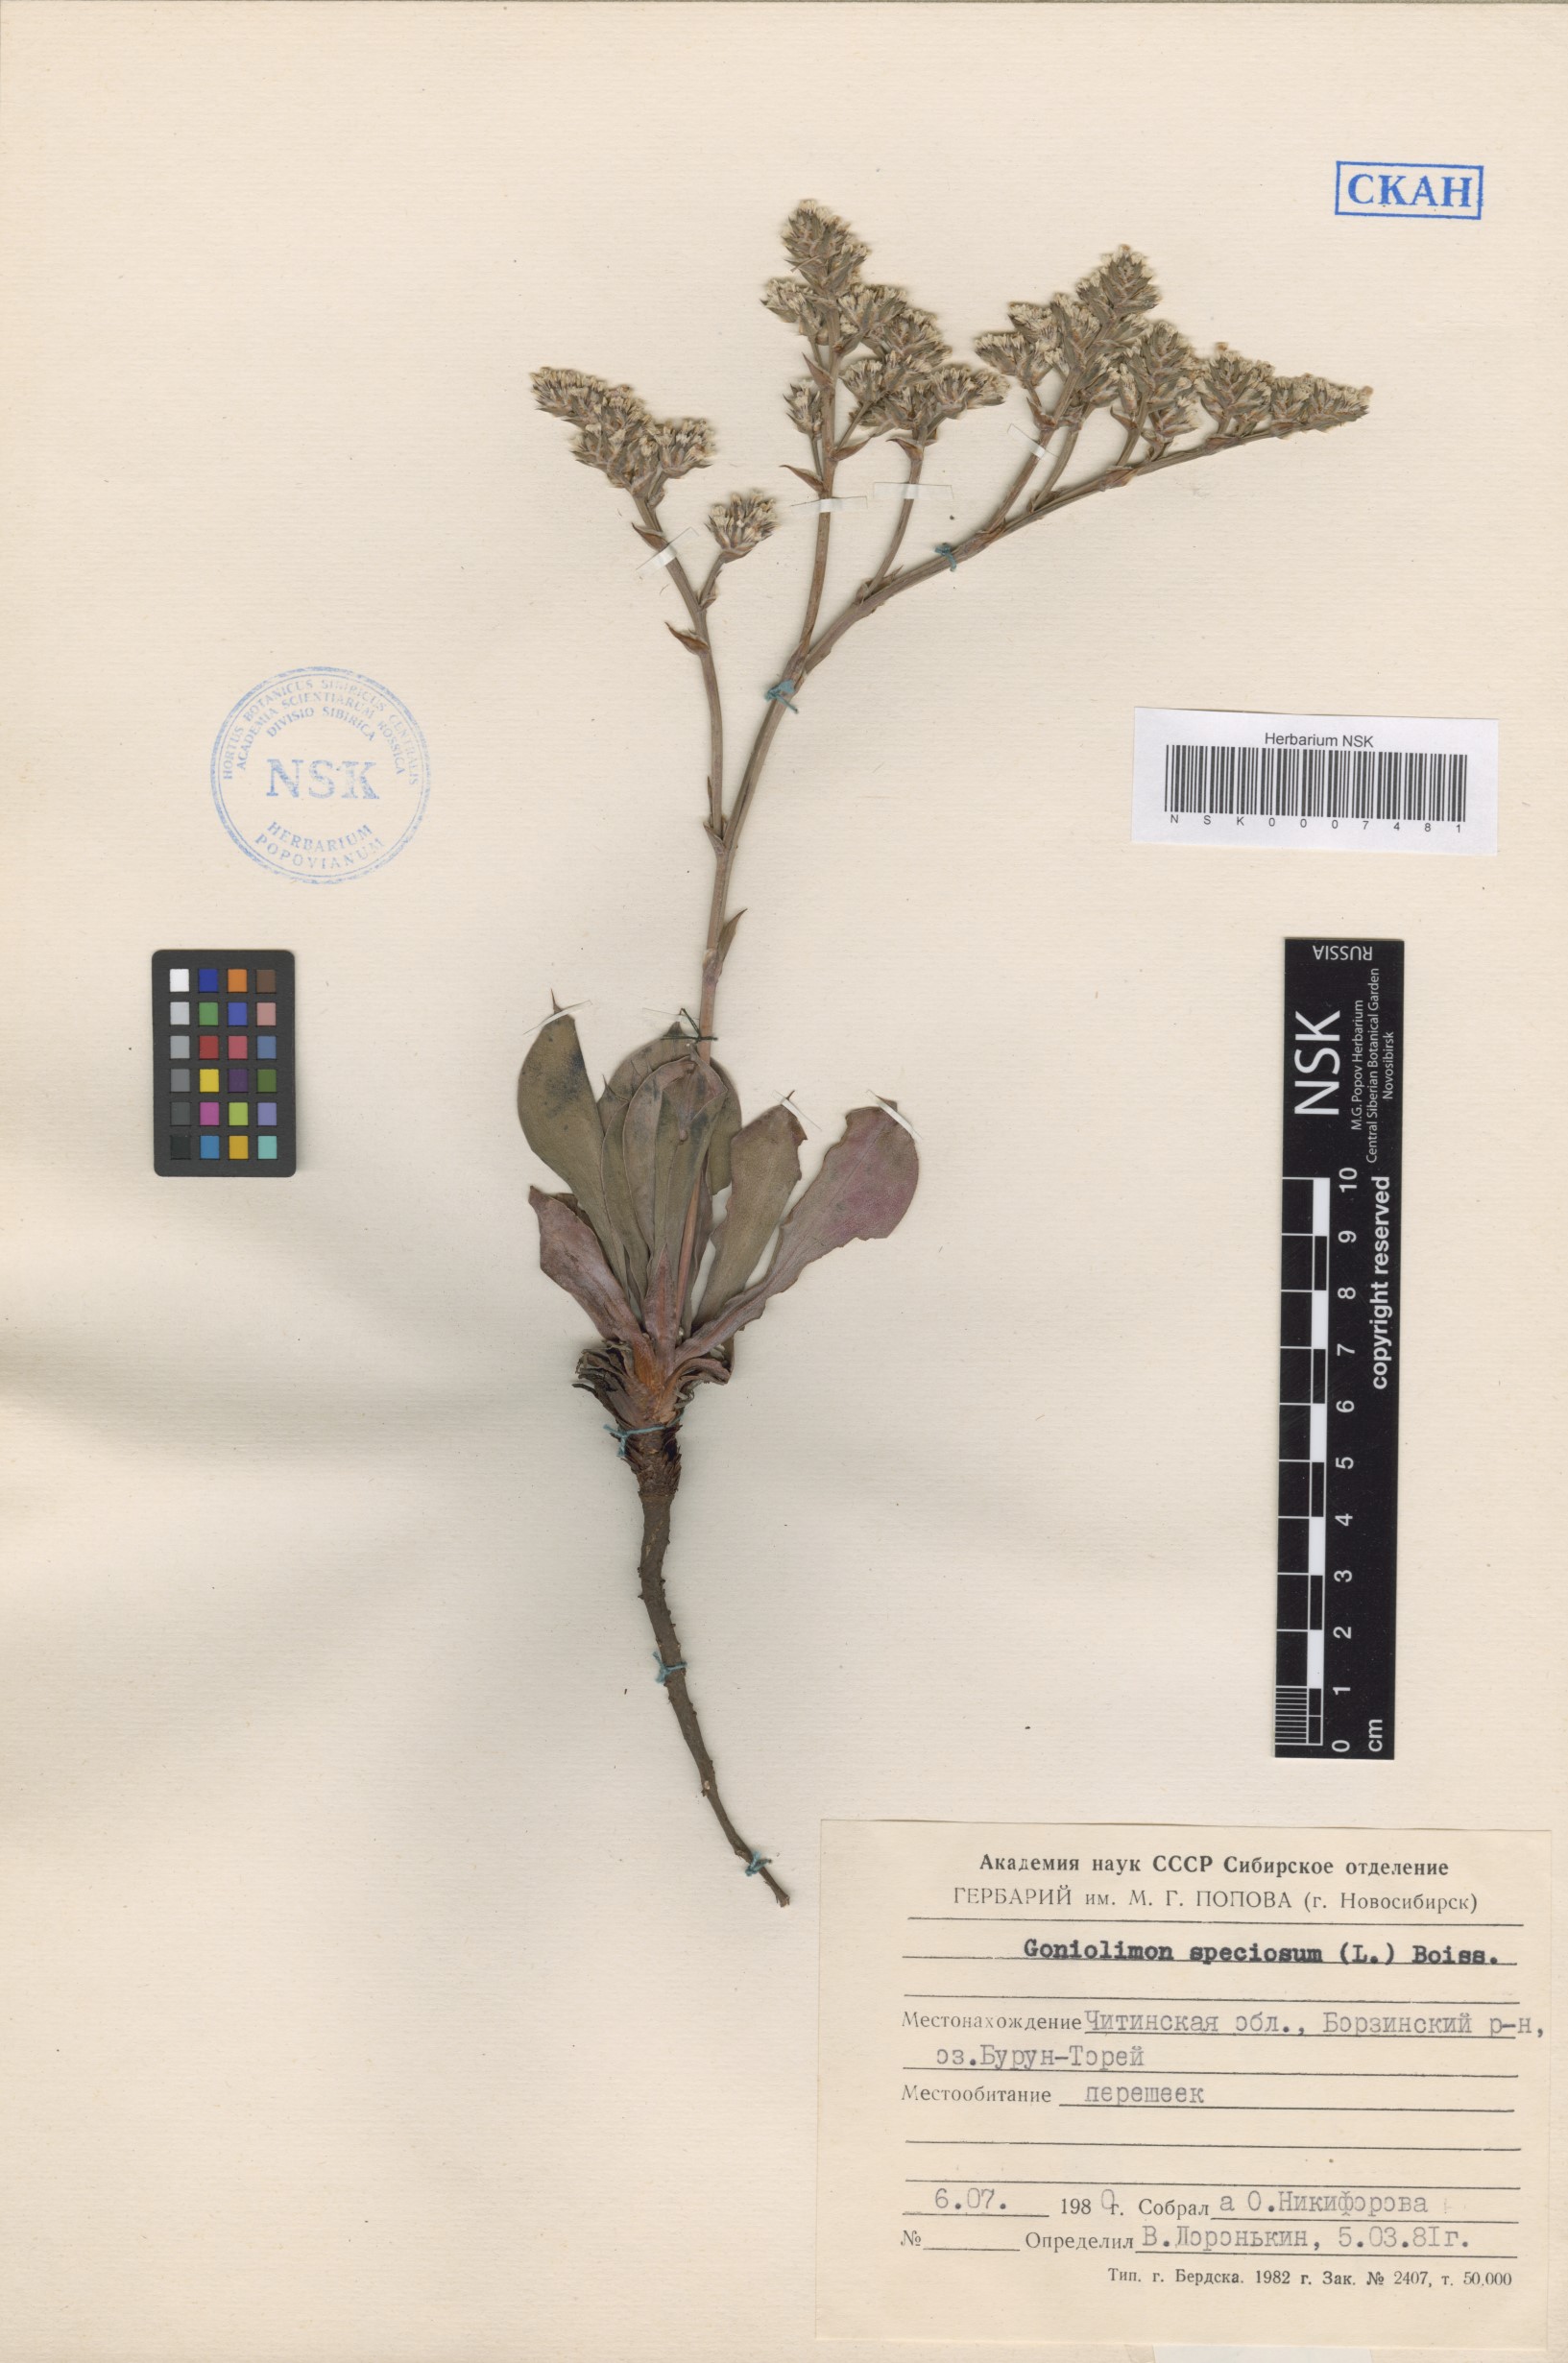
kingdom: Plantae
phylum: Tracheophyta
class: Magnoliopsida
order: Caryophyllales
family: Plumbaginaceae
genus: Goniolimon
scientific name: Goniolimon speciosum
